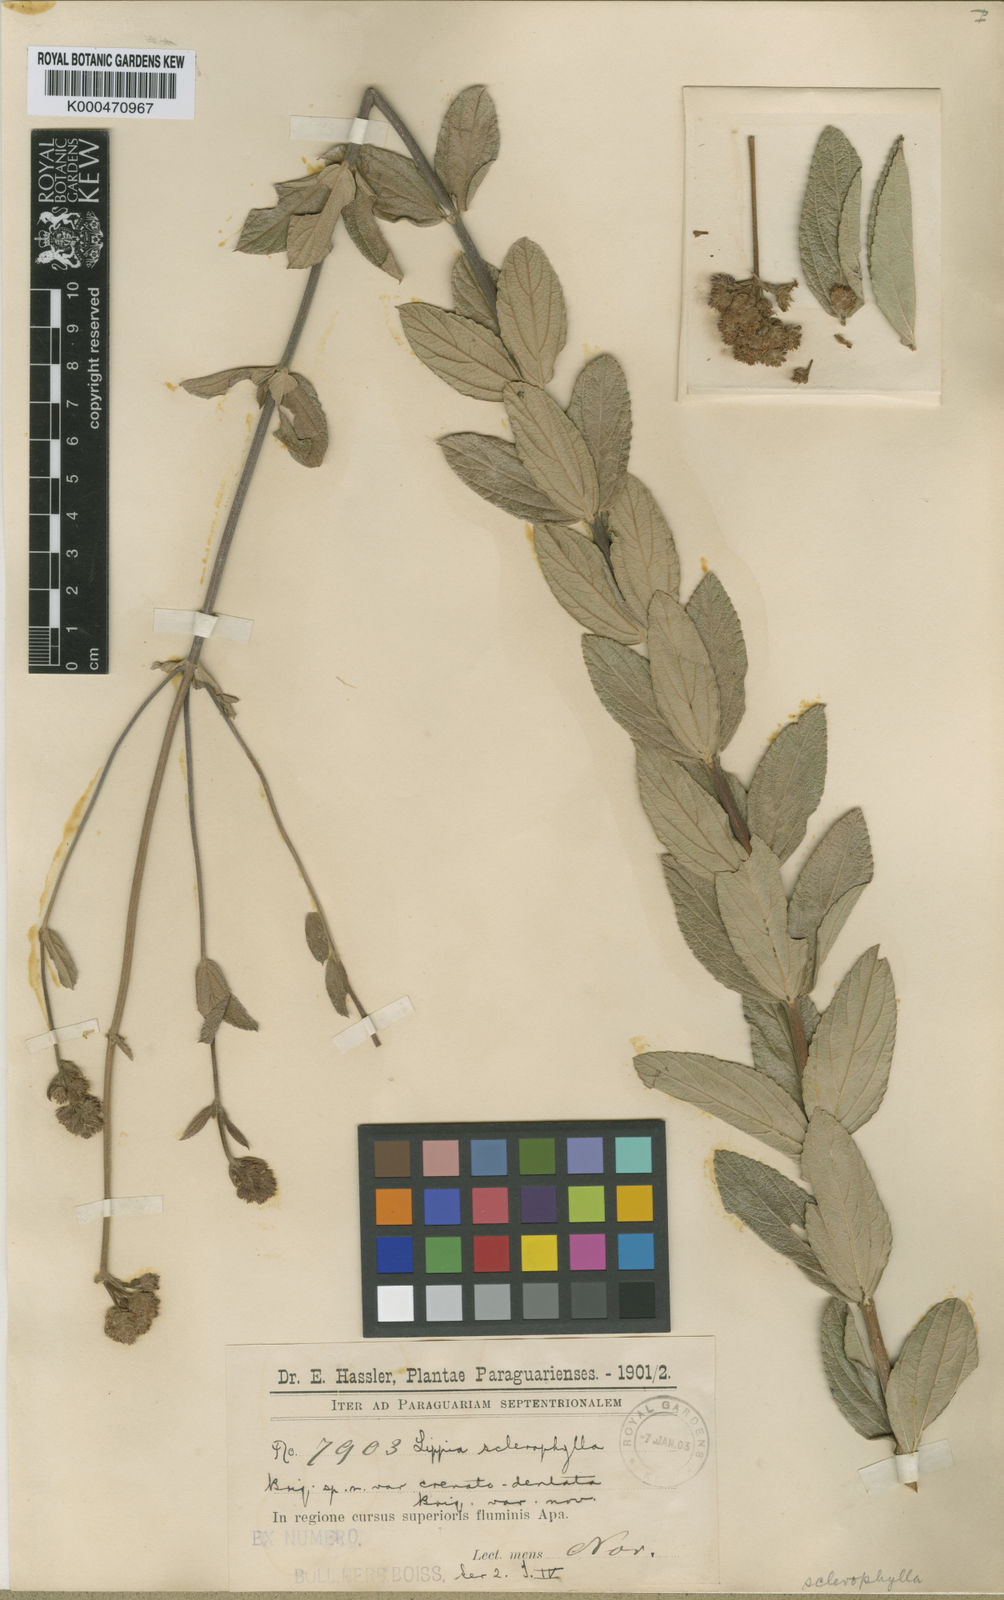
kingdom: Plantae
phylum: Tracheophyta
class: Magnoliopsida
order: Lamiales
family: Verbenaceae
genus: Lippia
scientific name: Lippia sclerophylla
